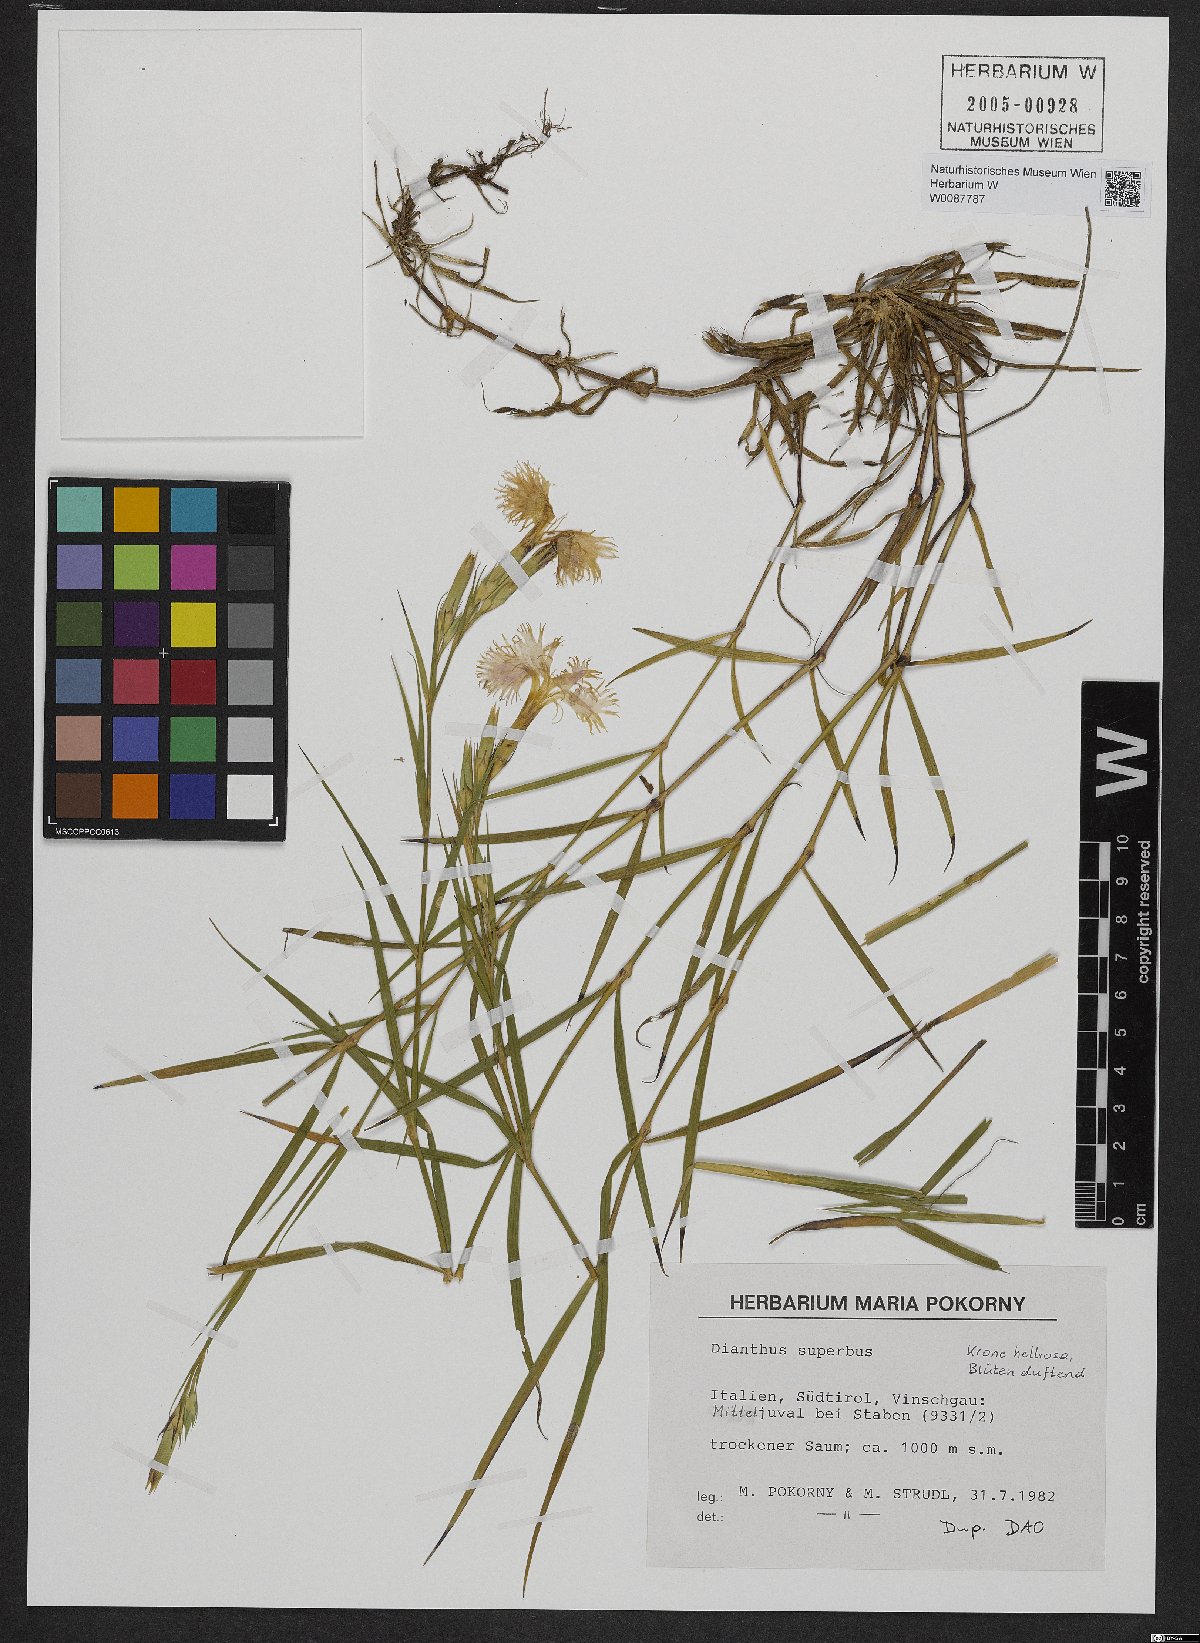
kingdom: Plantae
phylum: Tracheophyta
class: Magnoliopsida
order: Caryophyllales
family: Caryophyllaceae
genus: Dianthus
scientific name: Dianthus superbus
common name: Fringed pink
